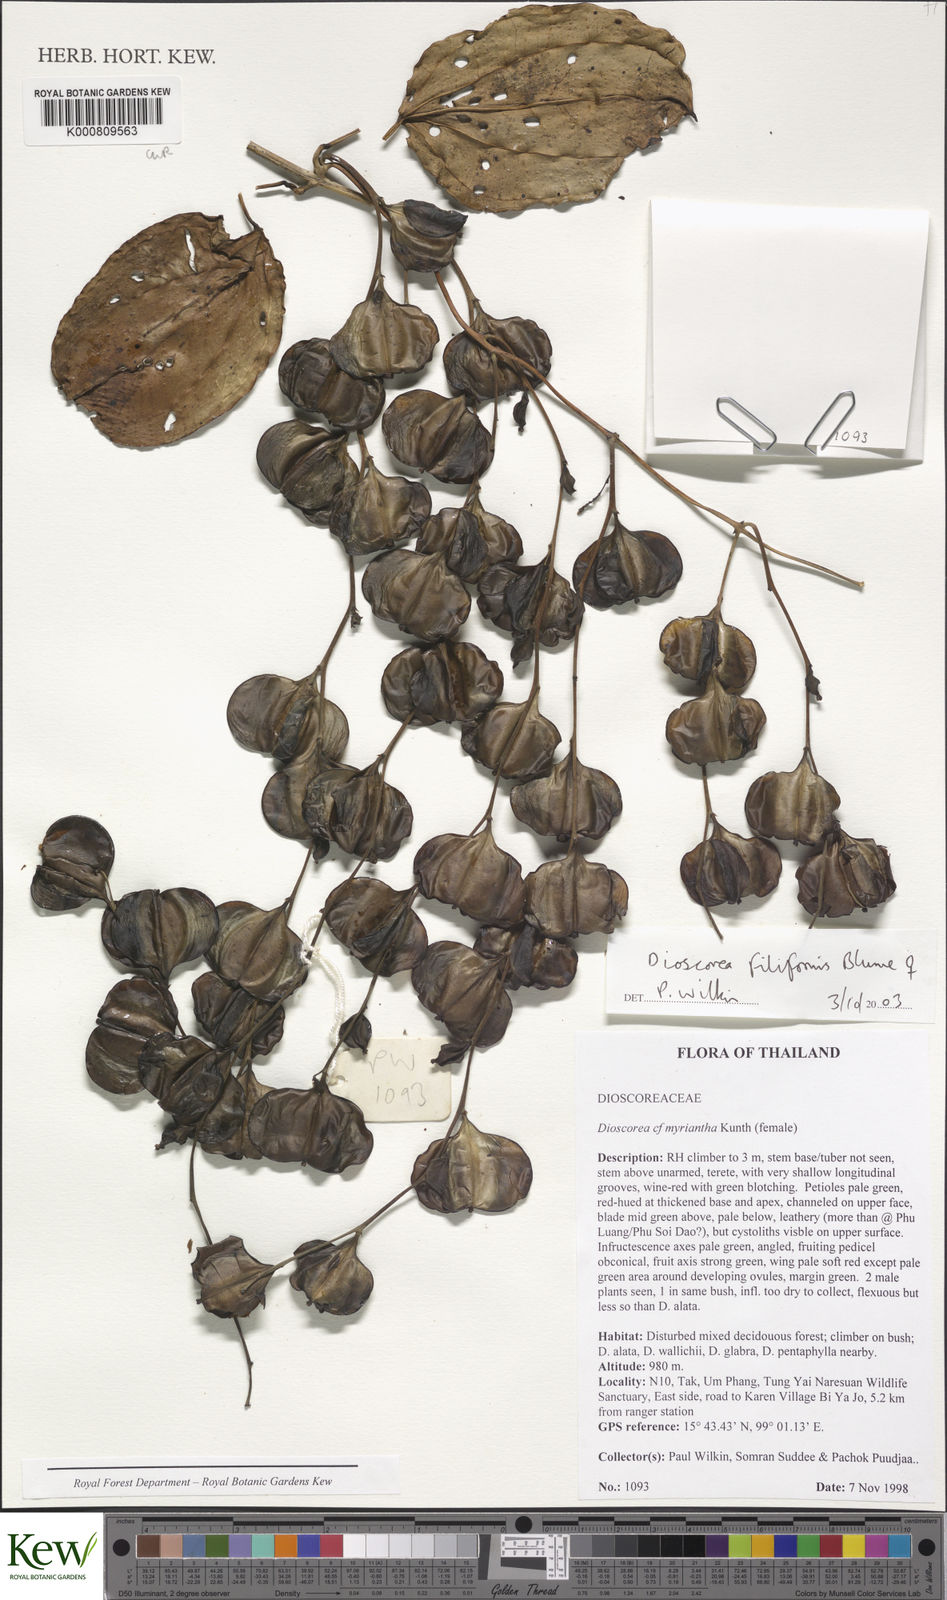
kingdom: Plantae
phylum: Tracheophyta
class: Liliopsida
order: Dioscoreales
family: Dioscoreaceae
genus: Dioscorea
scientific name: Dioscorea filiformis
